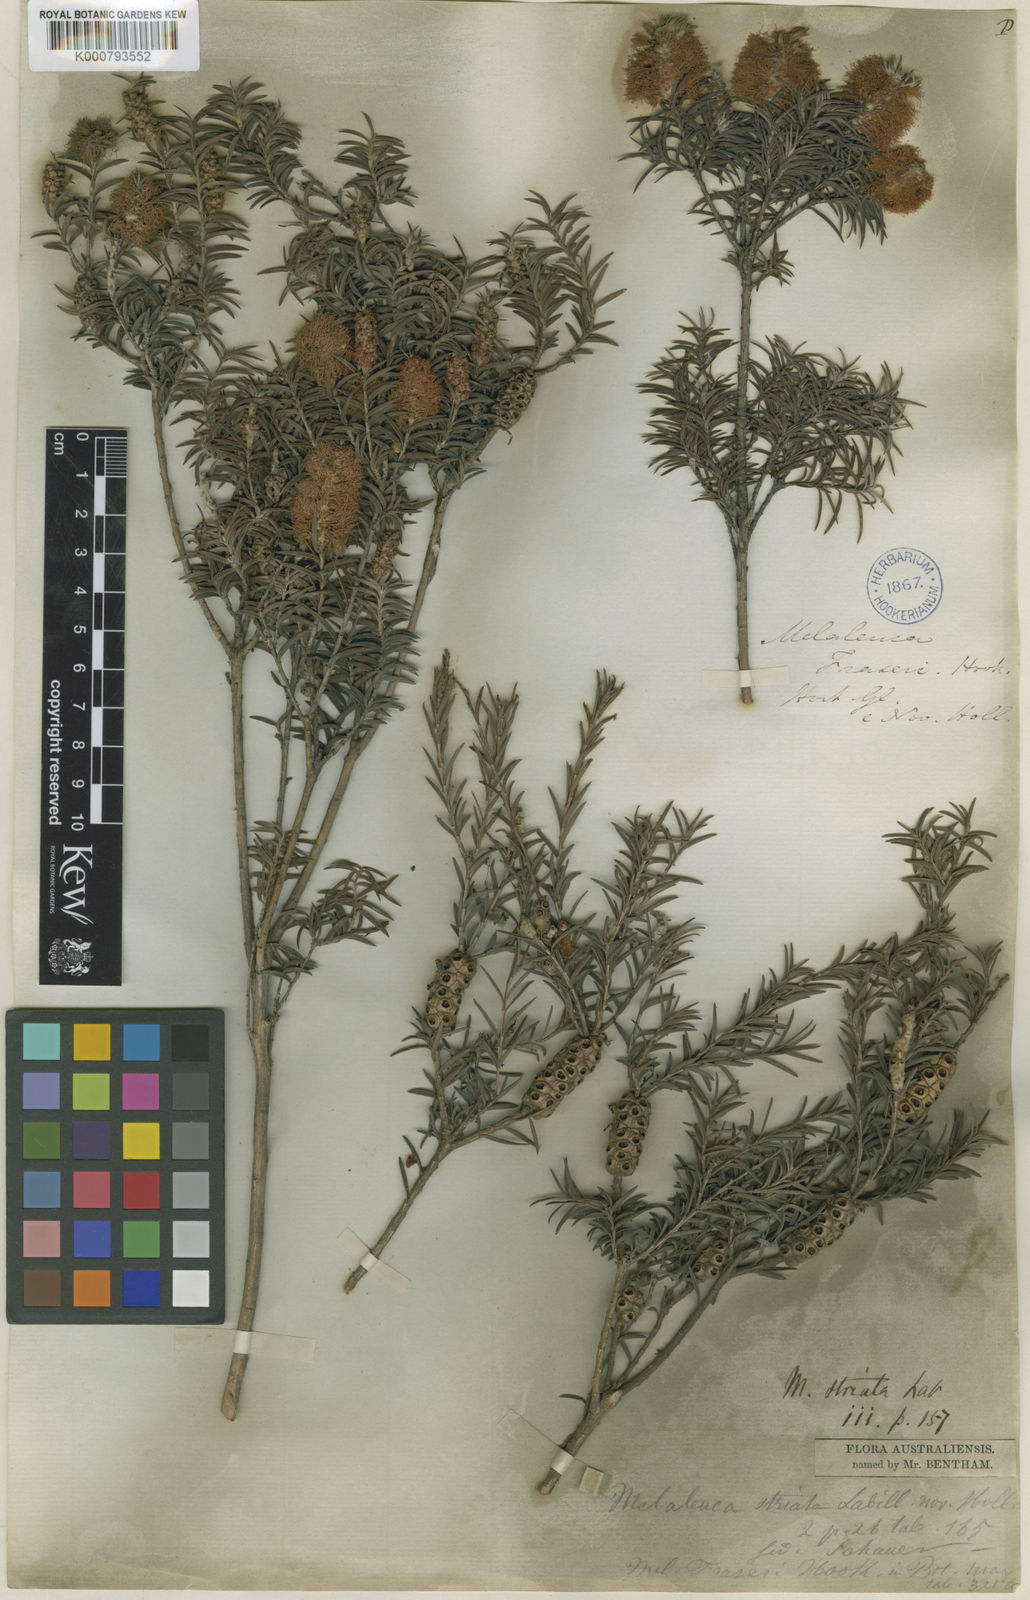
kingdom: Plantae
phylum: Tracheophyta
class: Magnoliopsida
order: Myrtales
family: Myrtaceae
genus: Melaleuca
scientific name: Melaleuca striata
